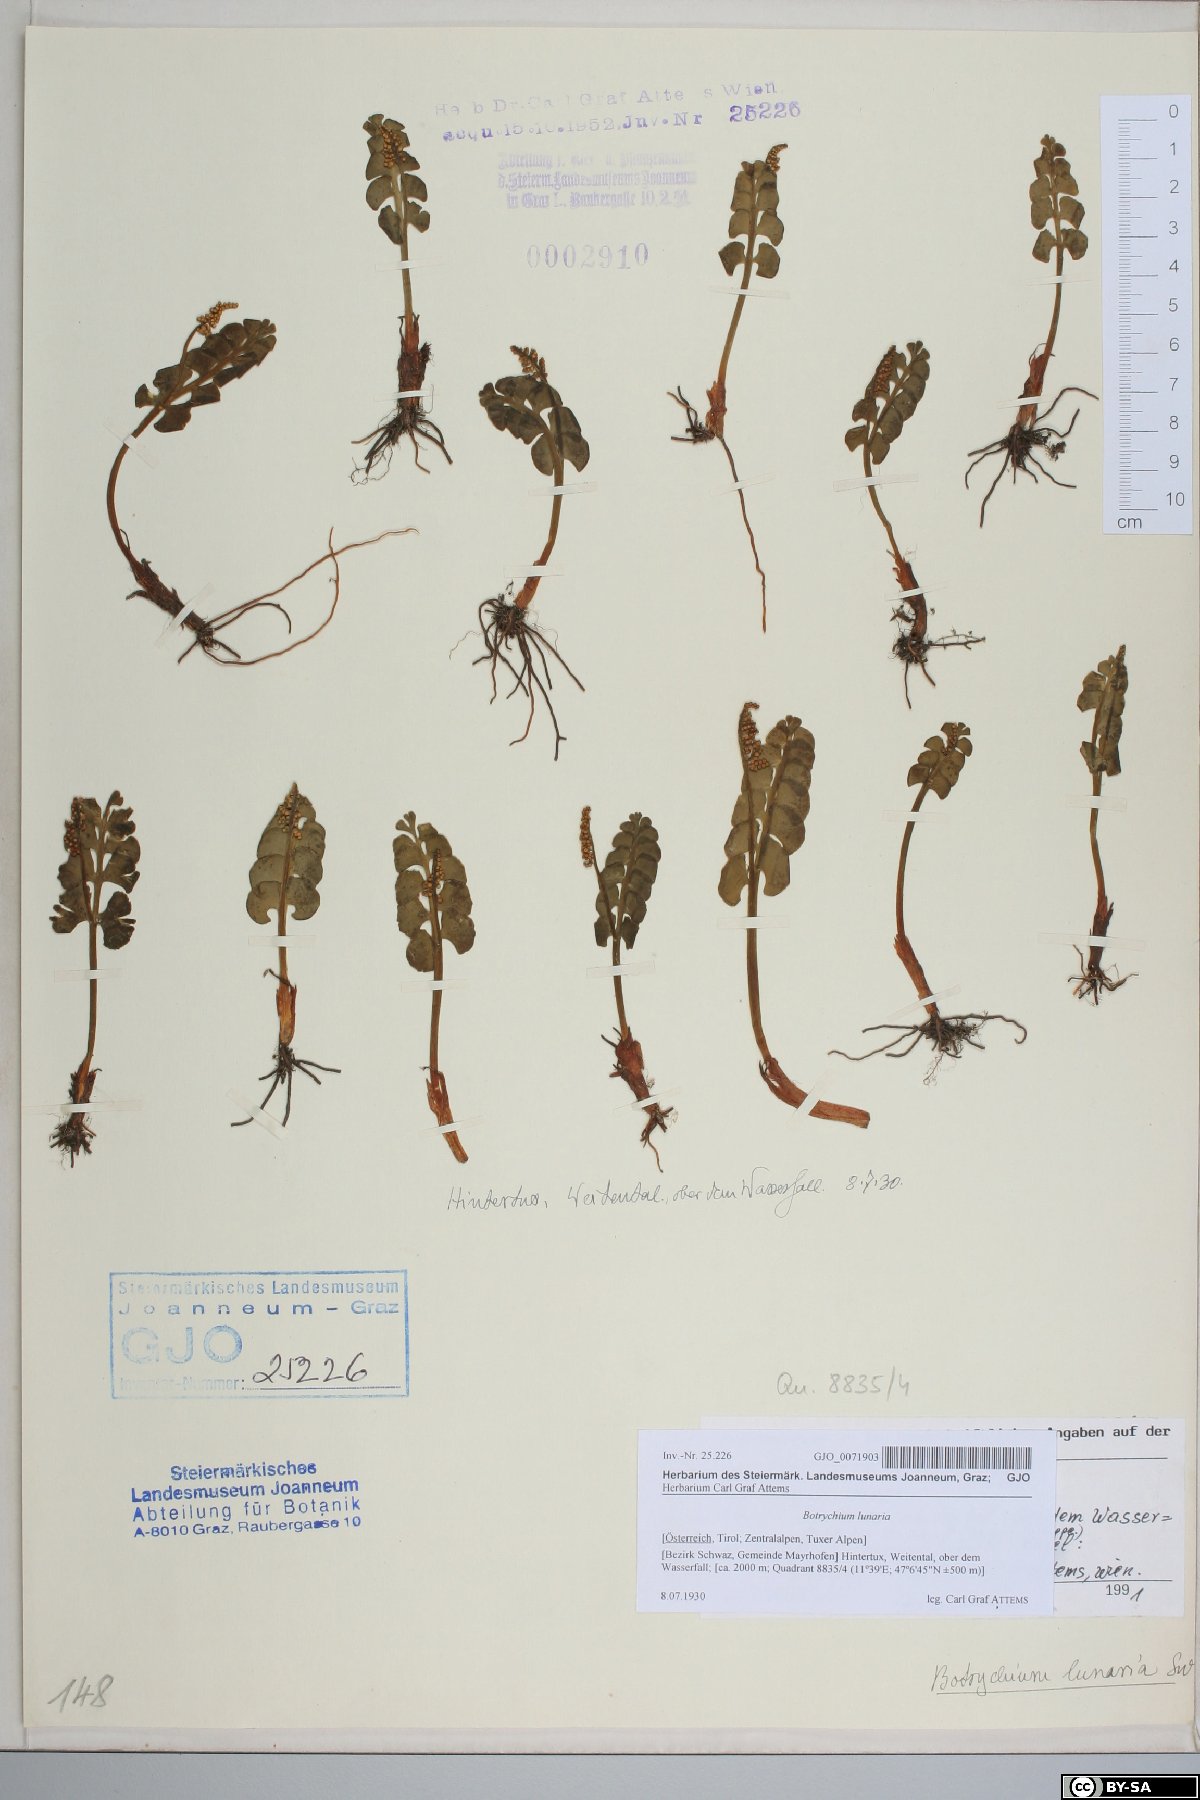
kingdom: Plantae
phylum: Tracheophyta
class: Polypodiopsida
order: Ophioglossales
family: Ophioglossaceae
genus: Botrychium
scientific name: Botrychium lunaria
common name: Moonwort
